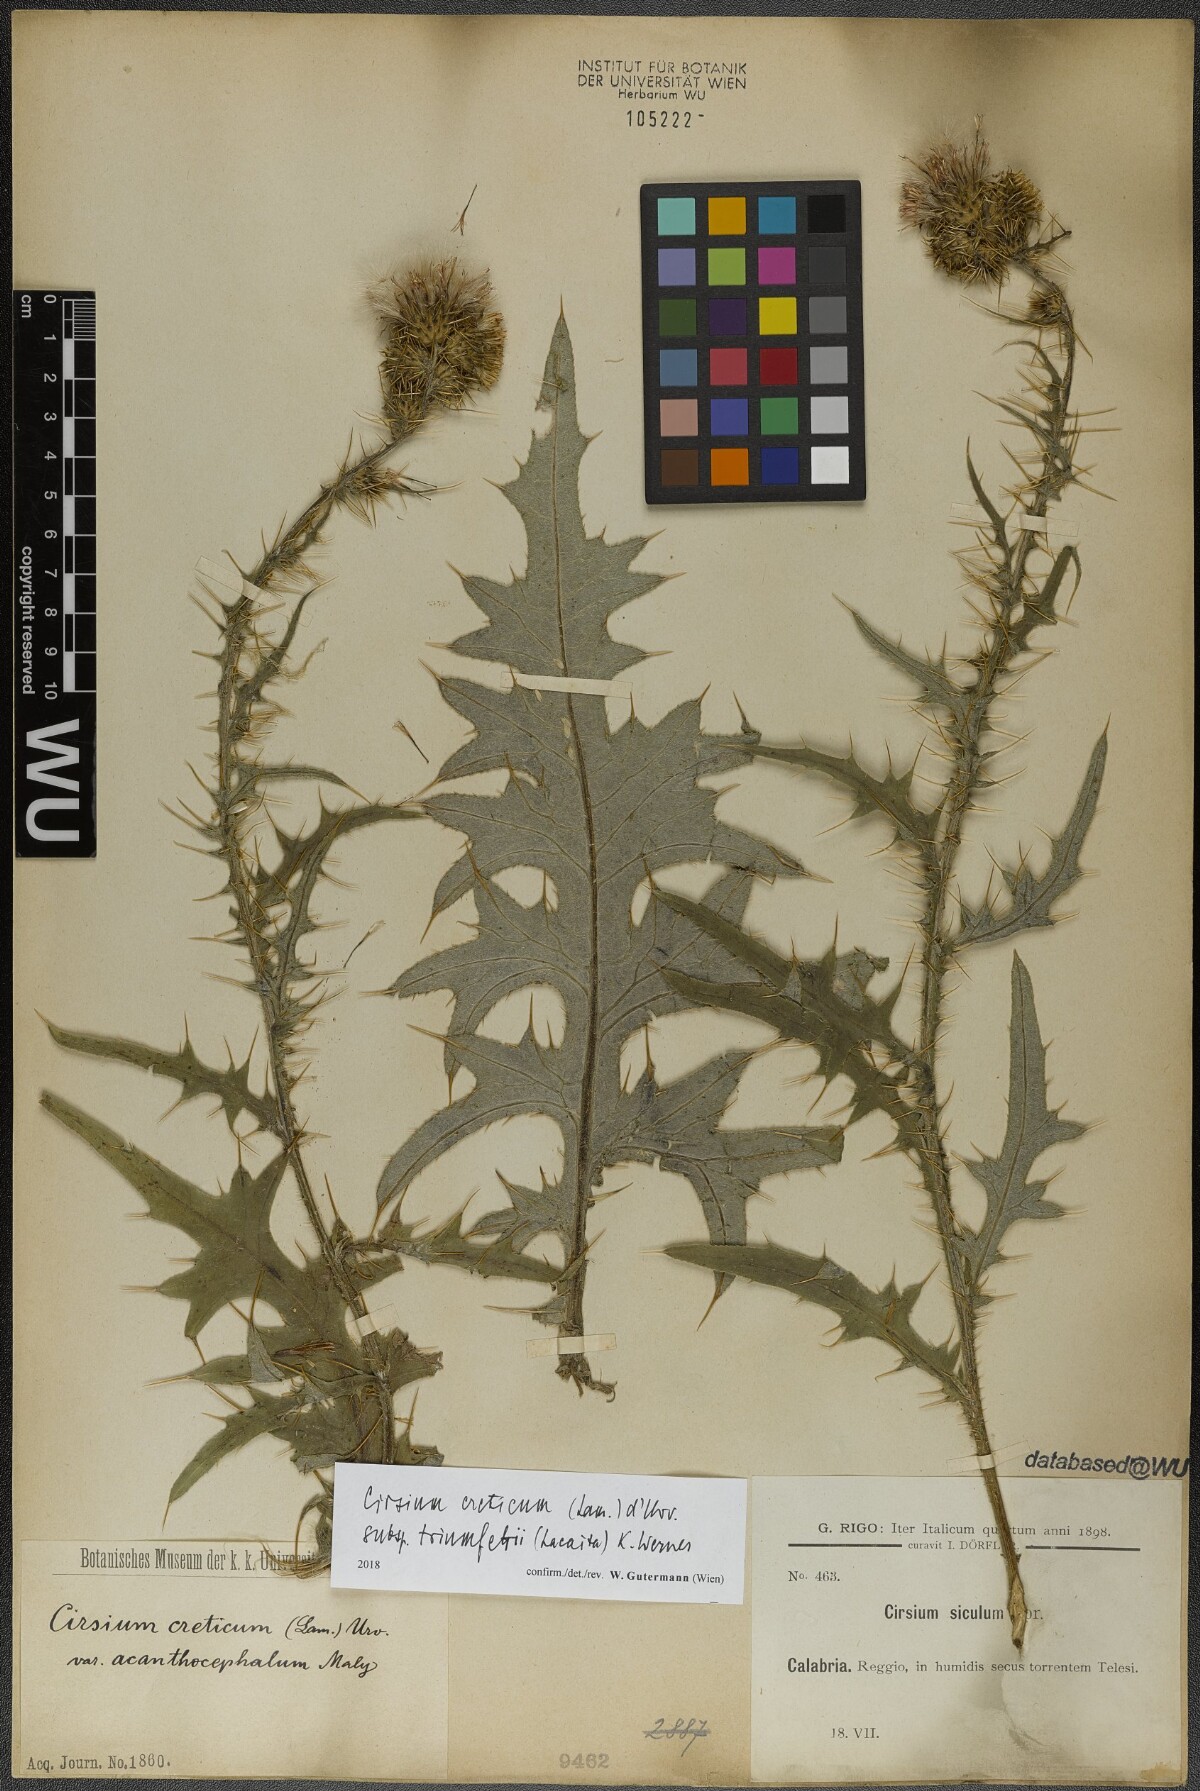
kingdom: Plantae
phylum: Tracheophyta
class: Magnoliopsida
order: Asterales
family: Asteraceae
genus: Cirsium
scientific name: Cirsium creticum
